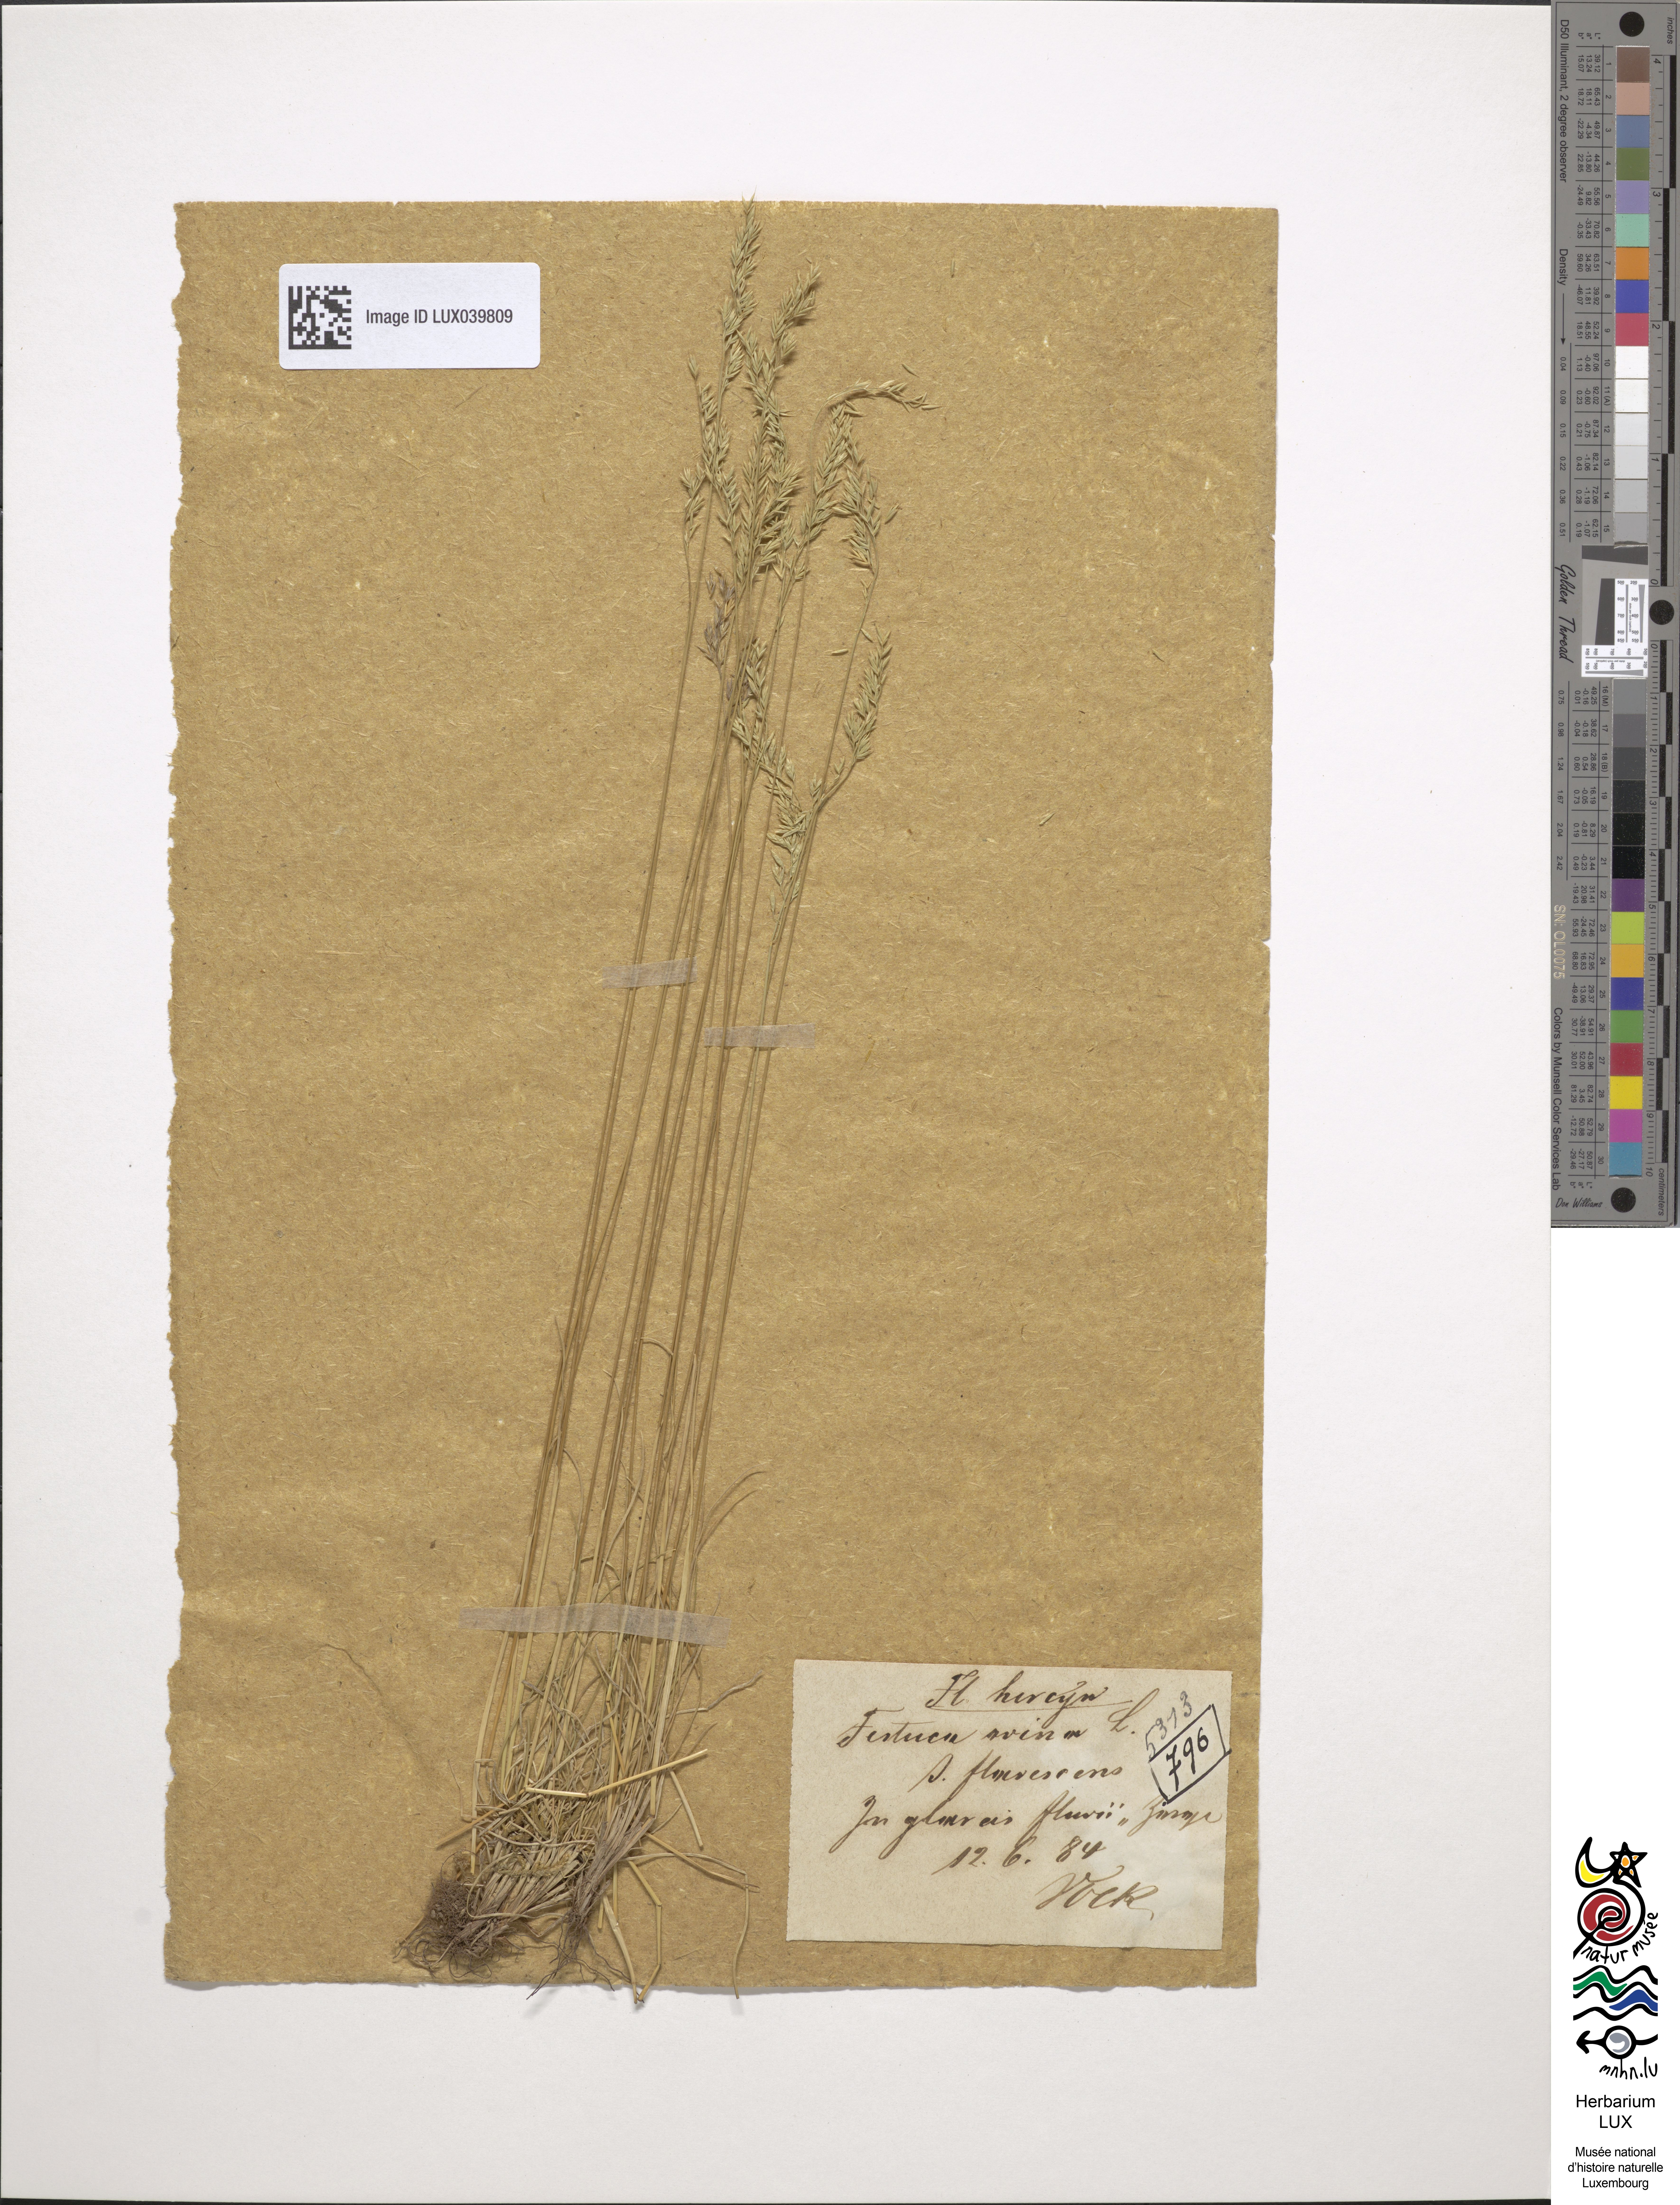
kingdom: Plantae
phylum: Tracheophyta
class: Liliopsida
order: Poales
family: Poaceae
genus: Festuca
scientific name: Festuca ovina
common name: Sheep fescue
